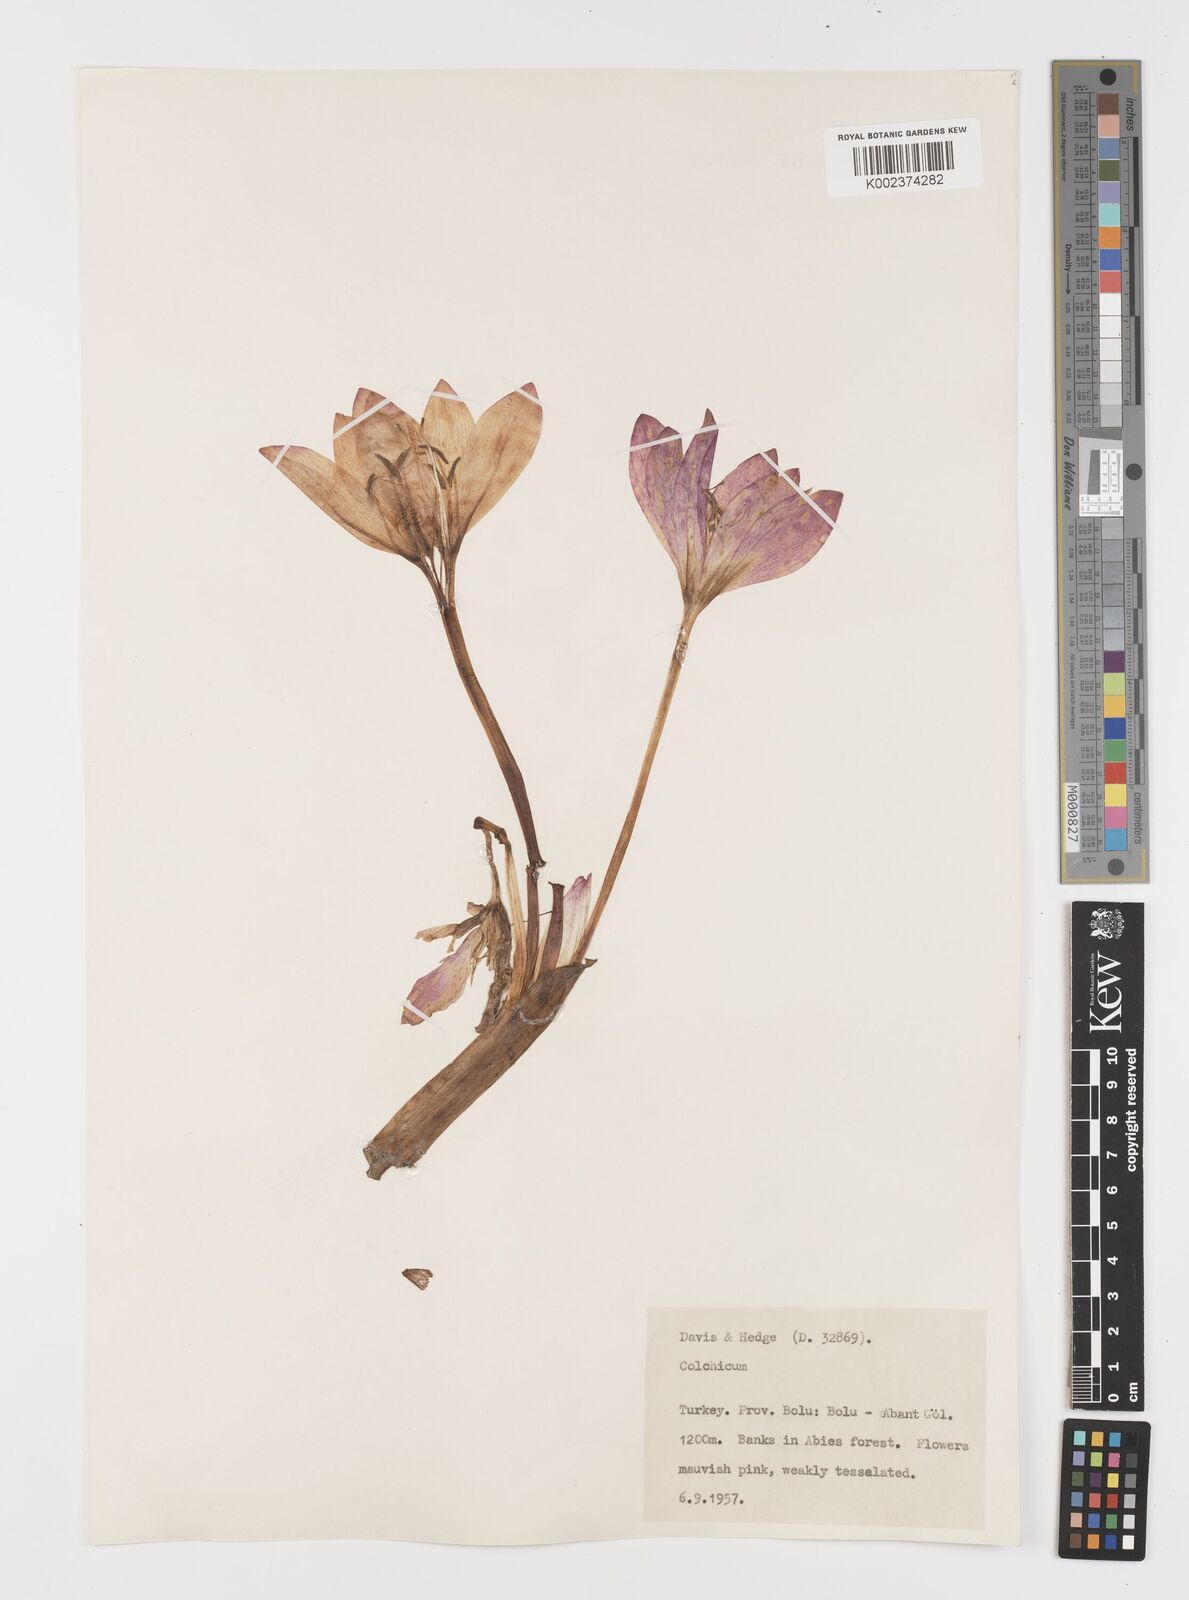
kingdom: Plantae
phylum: Tracheophyta
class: Liliopsida
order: Liliales
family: Colchicaceae
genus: Colchicum
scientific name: Colchicum
